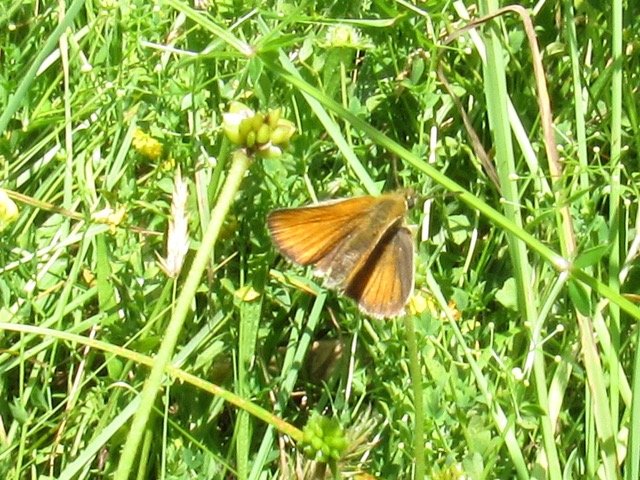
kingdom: Animalia
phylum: Arthropoda
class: Insecta
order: Lepidoptera
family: Hesperiidae
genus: Thymelicus
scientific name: Thymelicus lineola
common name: European Skipper
